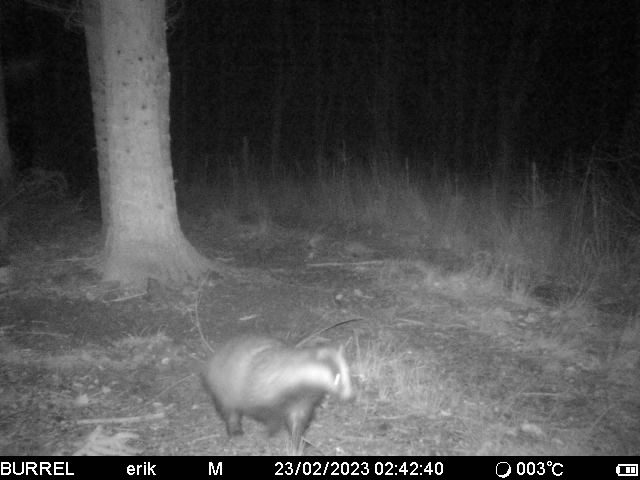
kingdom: Animalia
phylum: Chordata
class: Mammalia
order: Carnivora
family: Mustelidae
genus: Meles
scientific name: Meles meles
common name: Grævling
